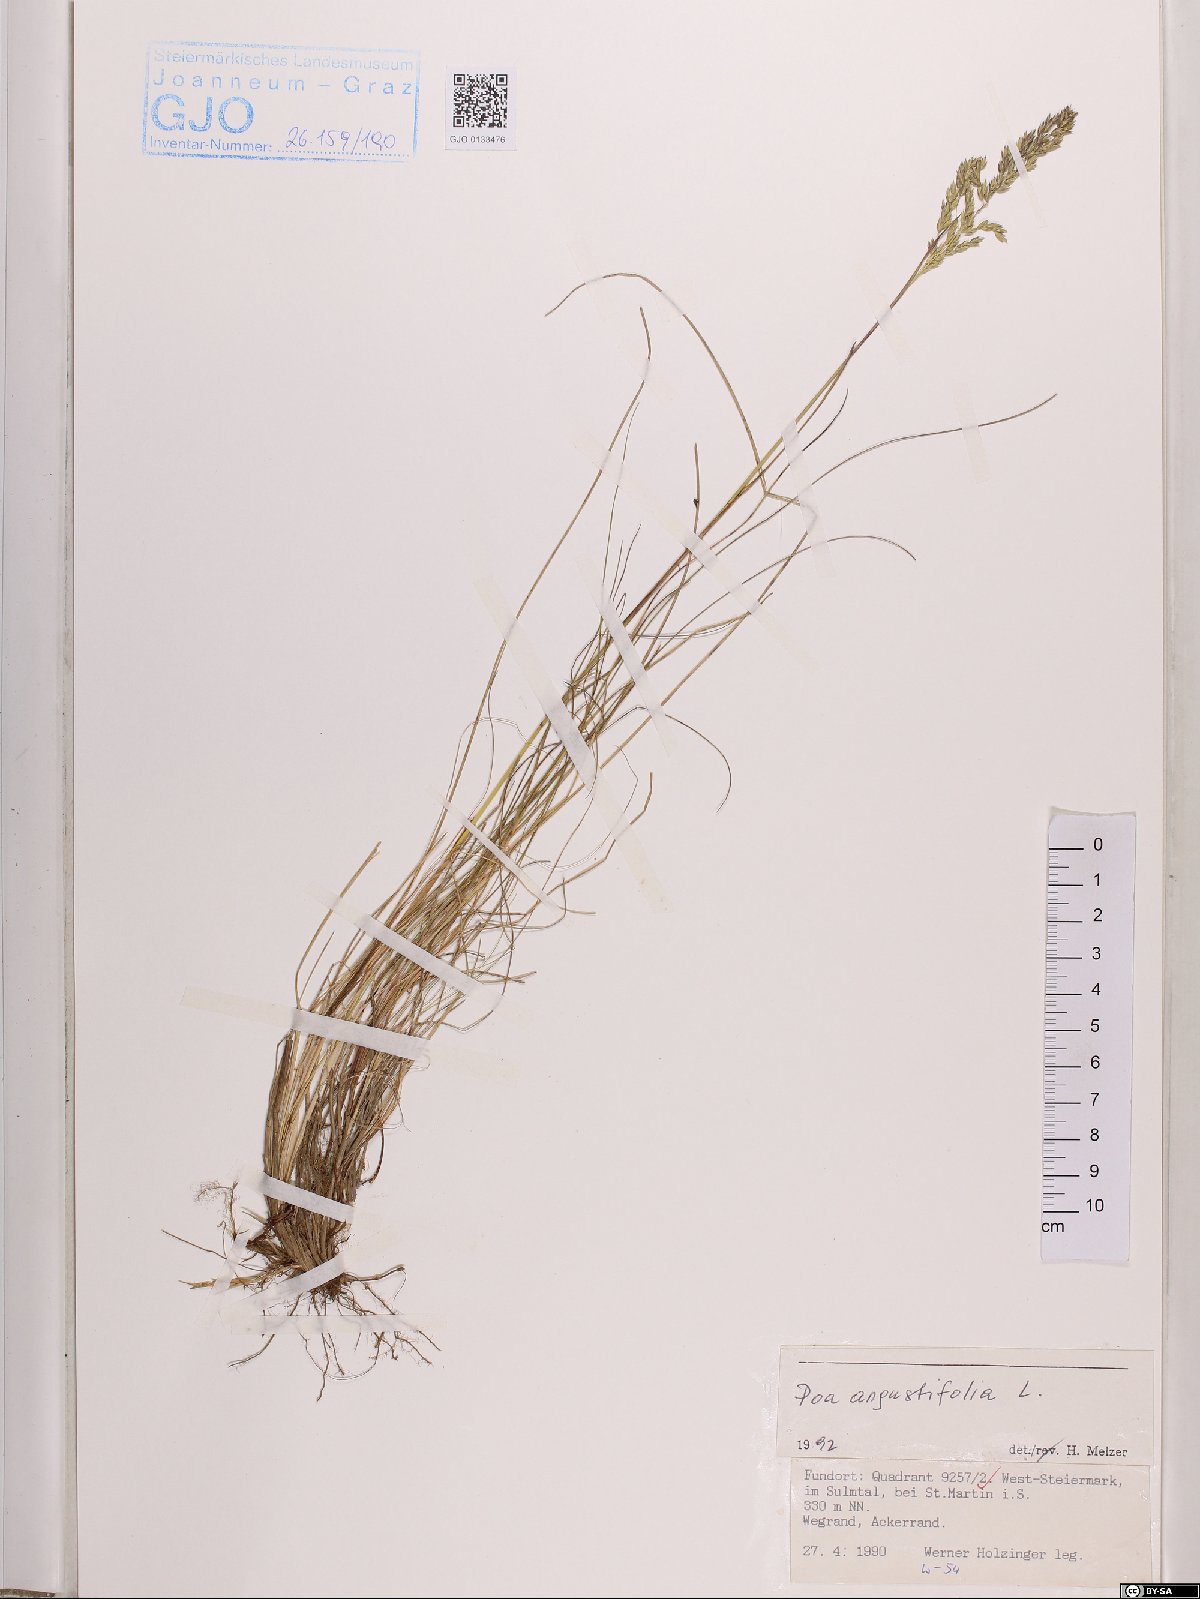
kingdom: Plantae
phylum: Tracheophyta
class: Liliopsida
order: Poales
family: Poaceae
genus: Poa
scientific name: Poa angustifolia
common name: Narrow-leaved meadow-grass
